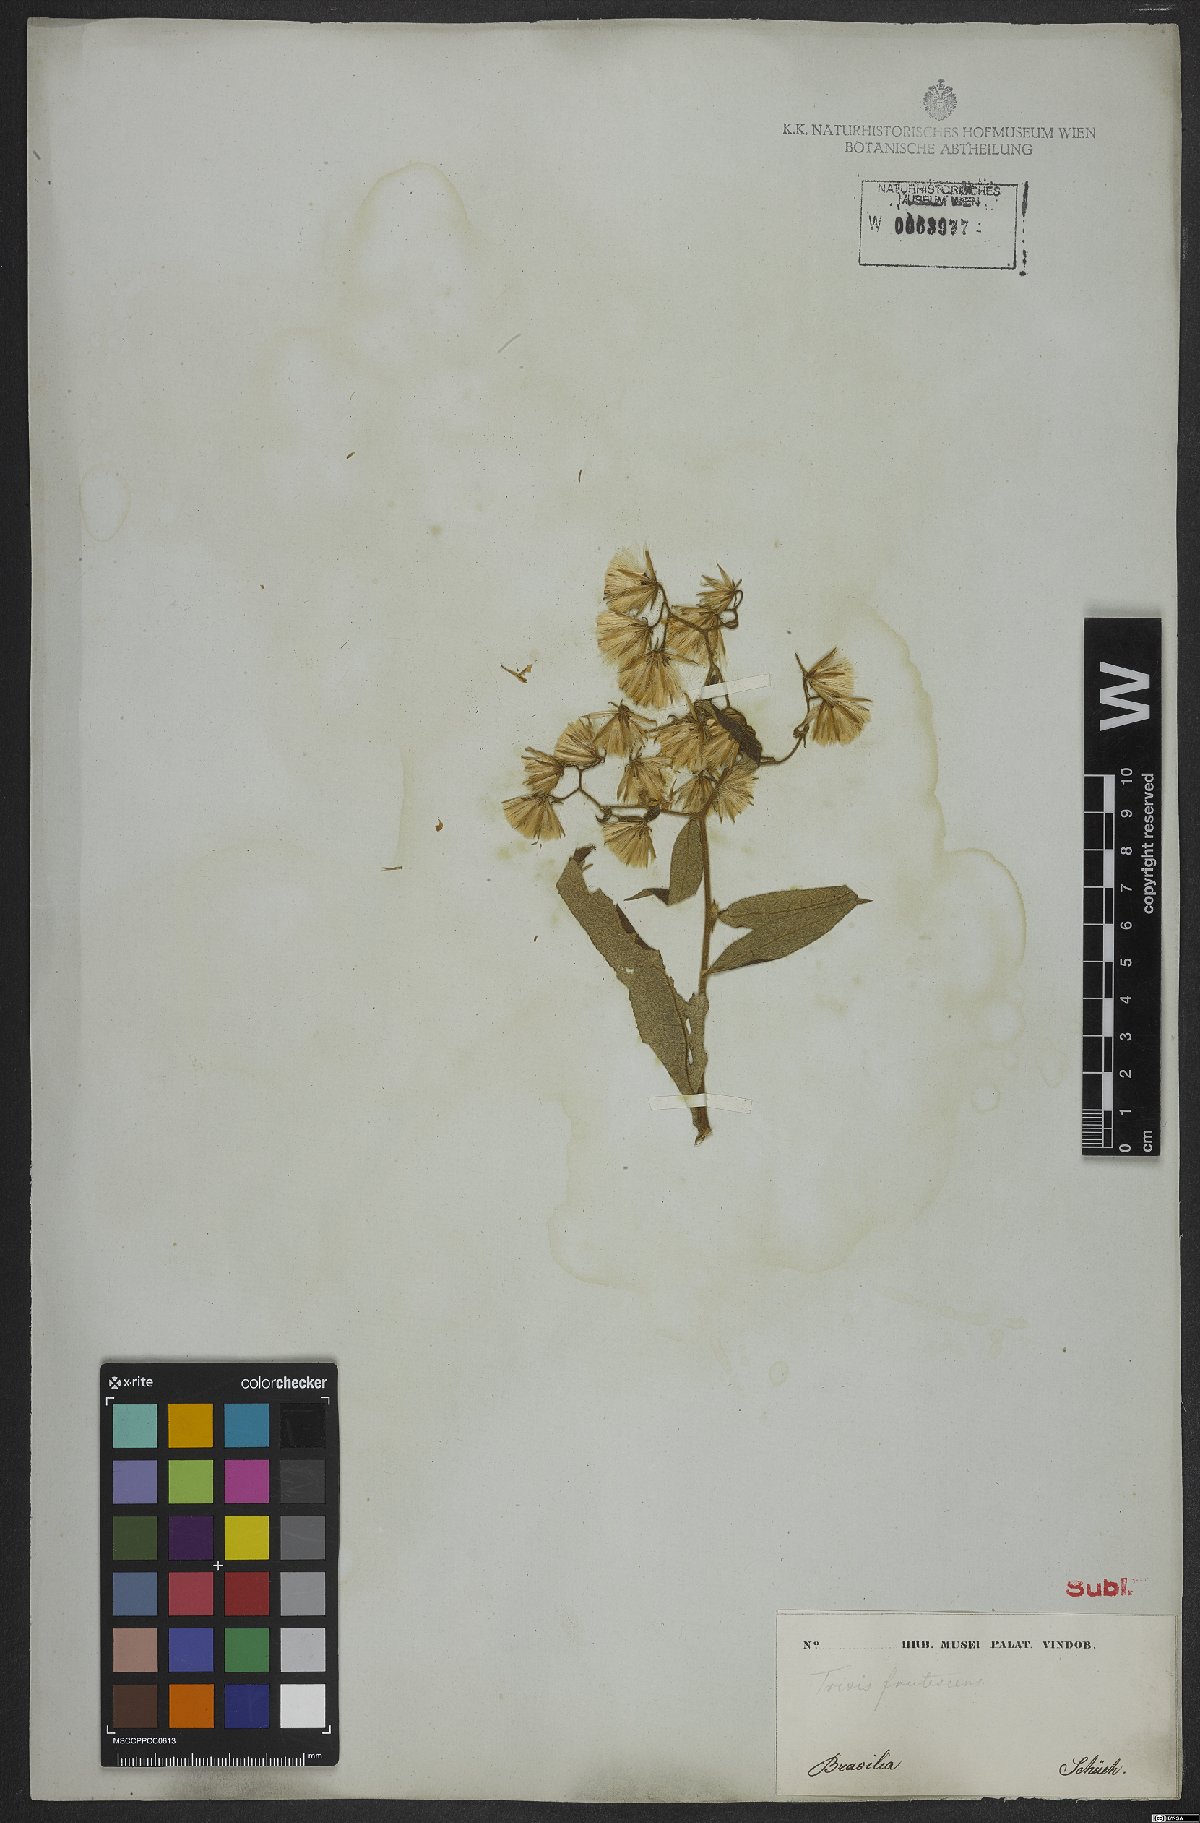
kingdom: Plantae
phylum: Tracheophyta
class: Magnoliopsida
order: Asterales
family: Asteraceae
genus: Trixis
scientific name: Trixis divaricata
